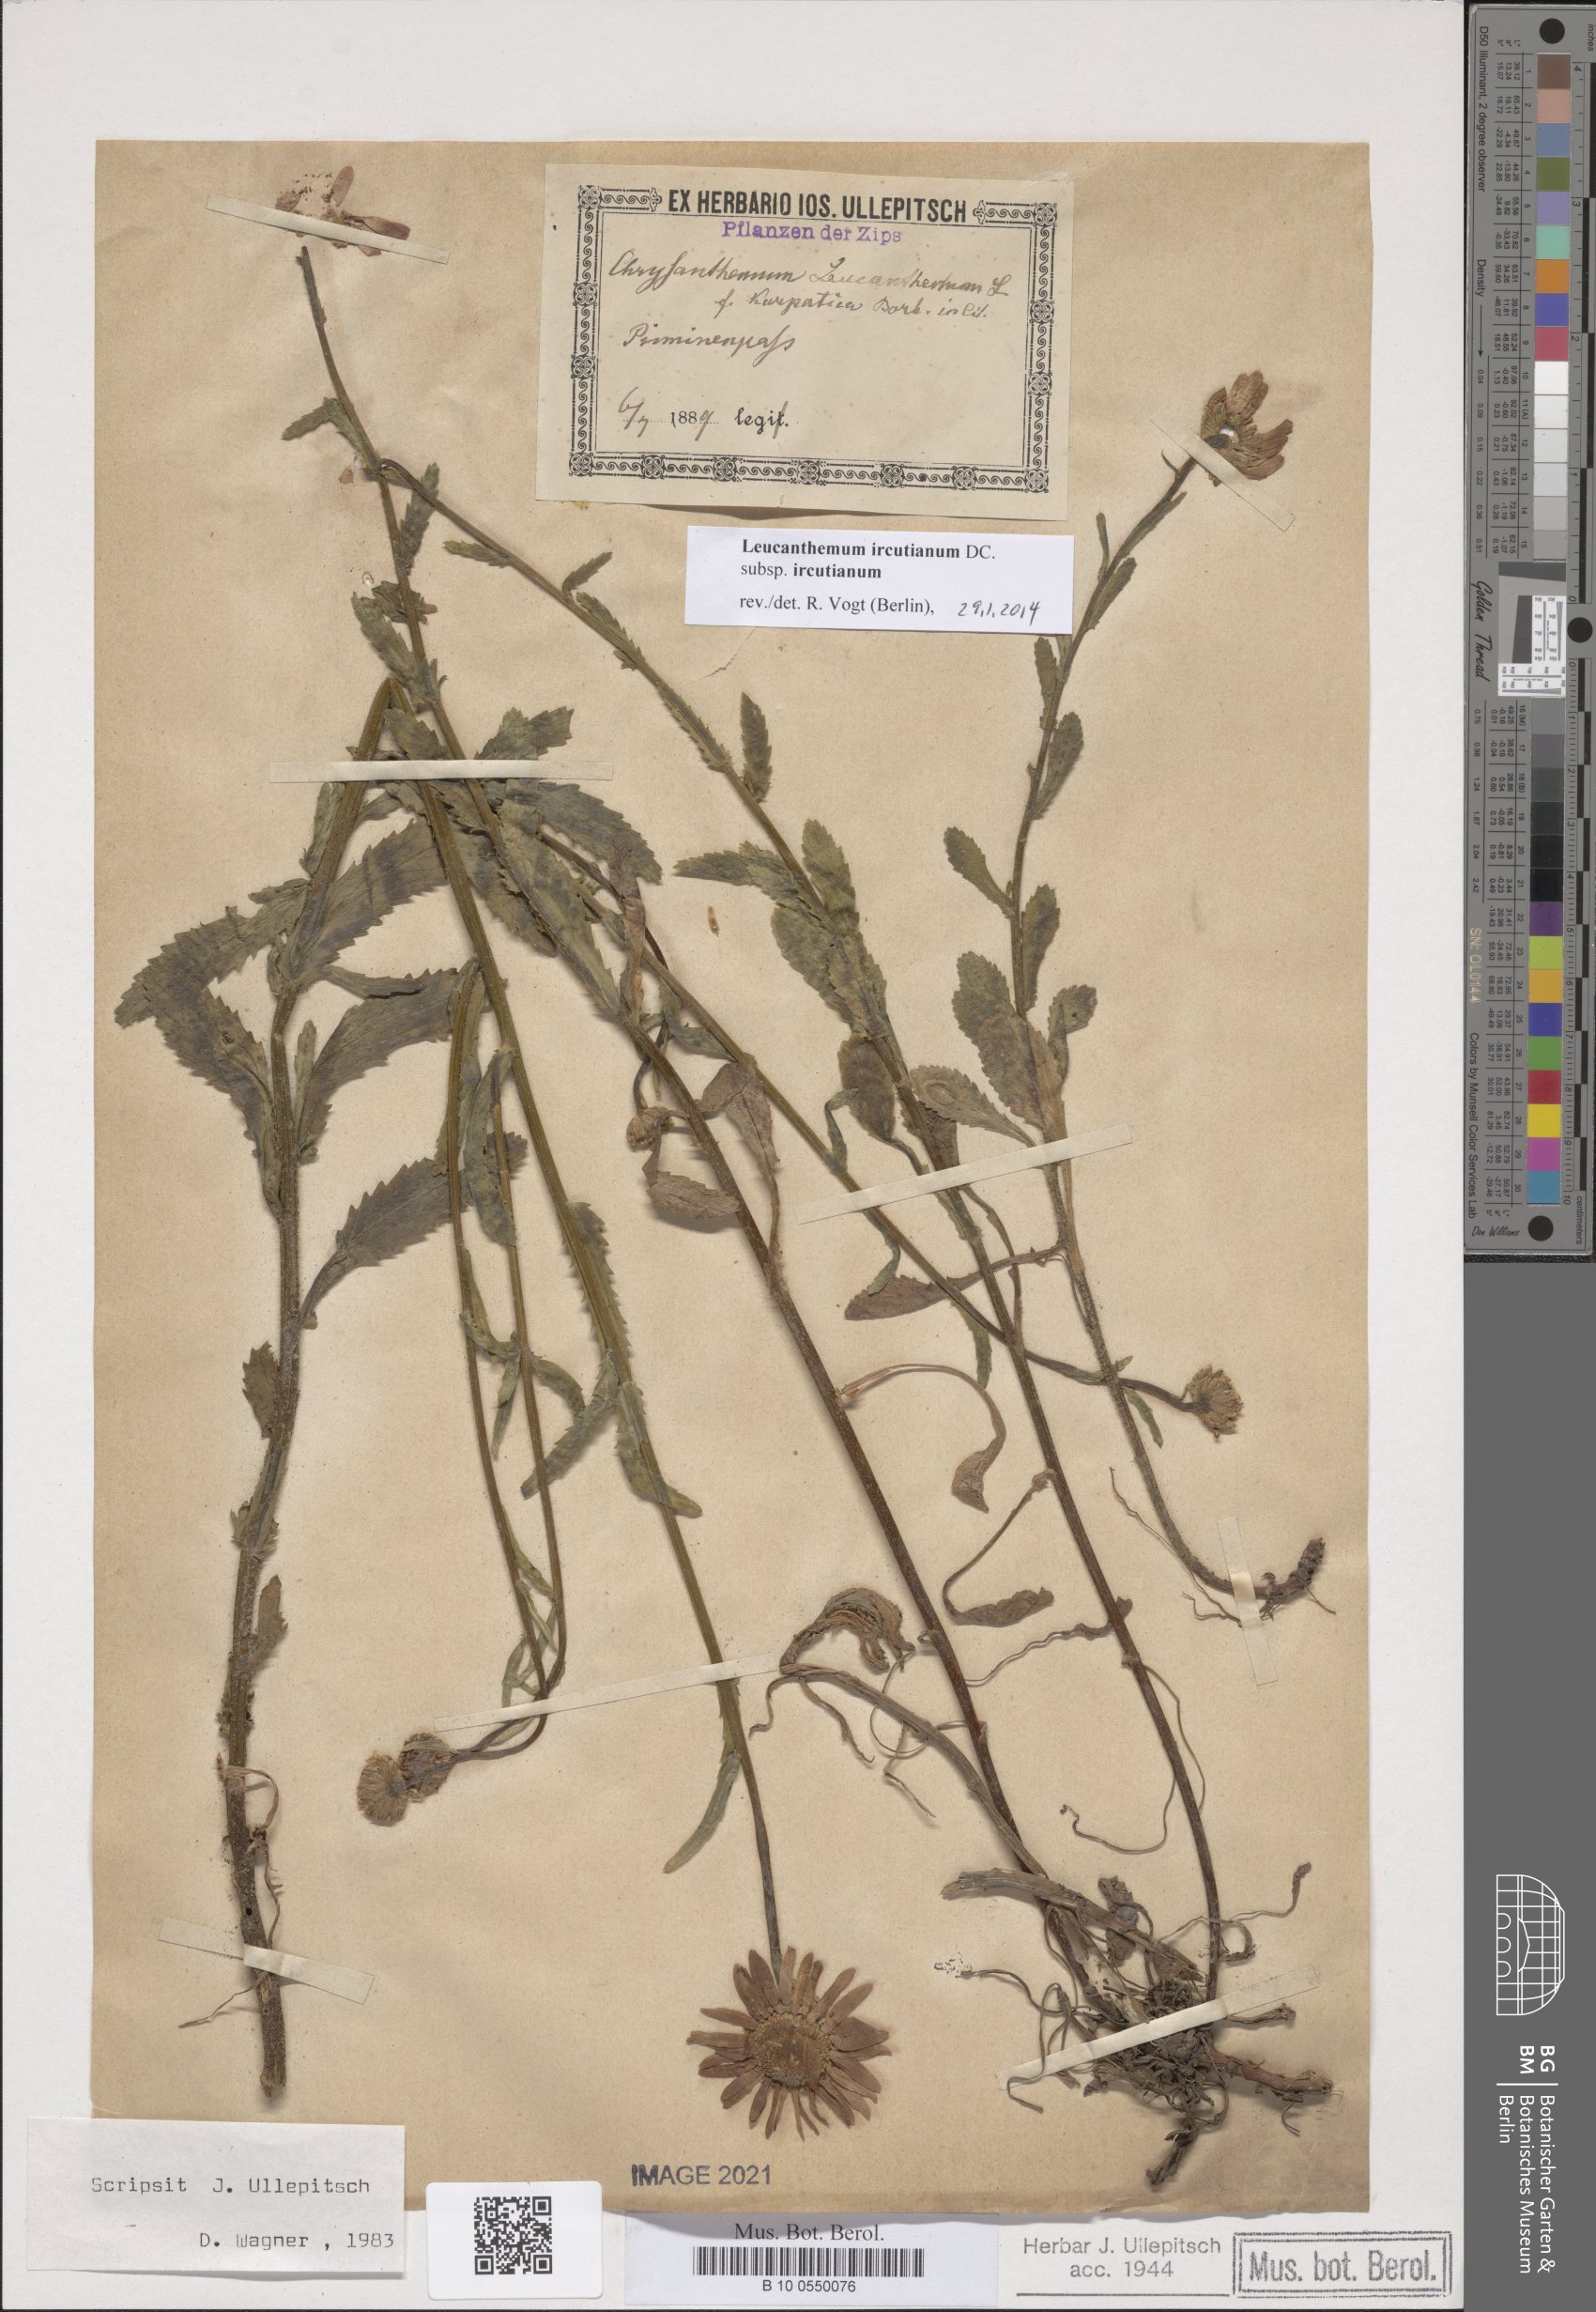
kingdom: Plantae
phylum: Tracheophyta
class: Magnoliopsida
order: Asterales
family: Asteraceae
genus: Leucanthemum
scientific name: Leucanthemum ircutianum
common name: Daisy
